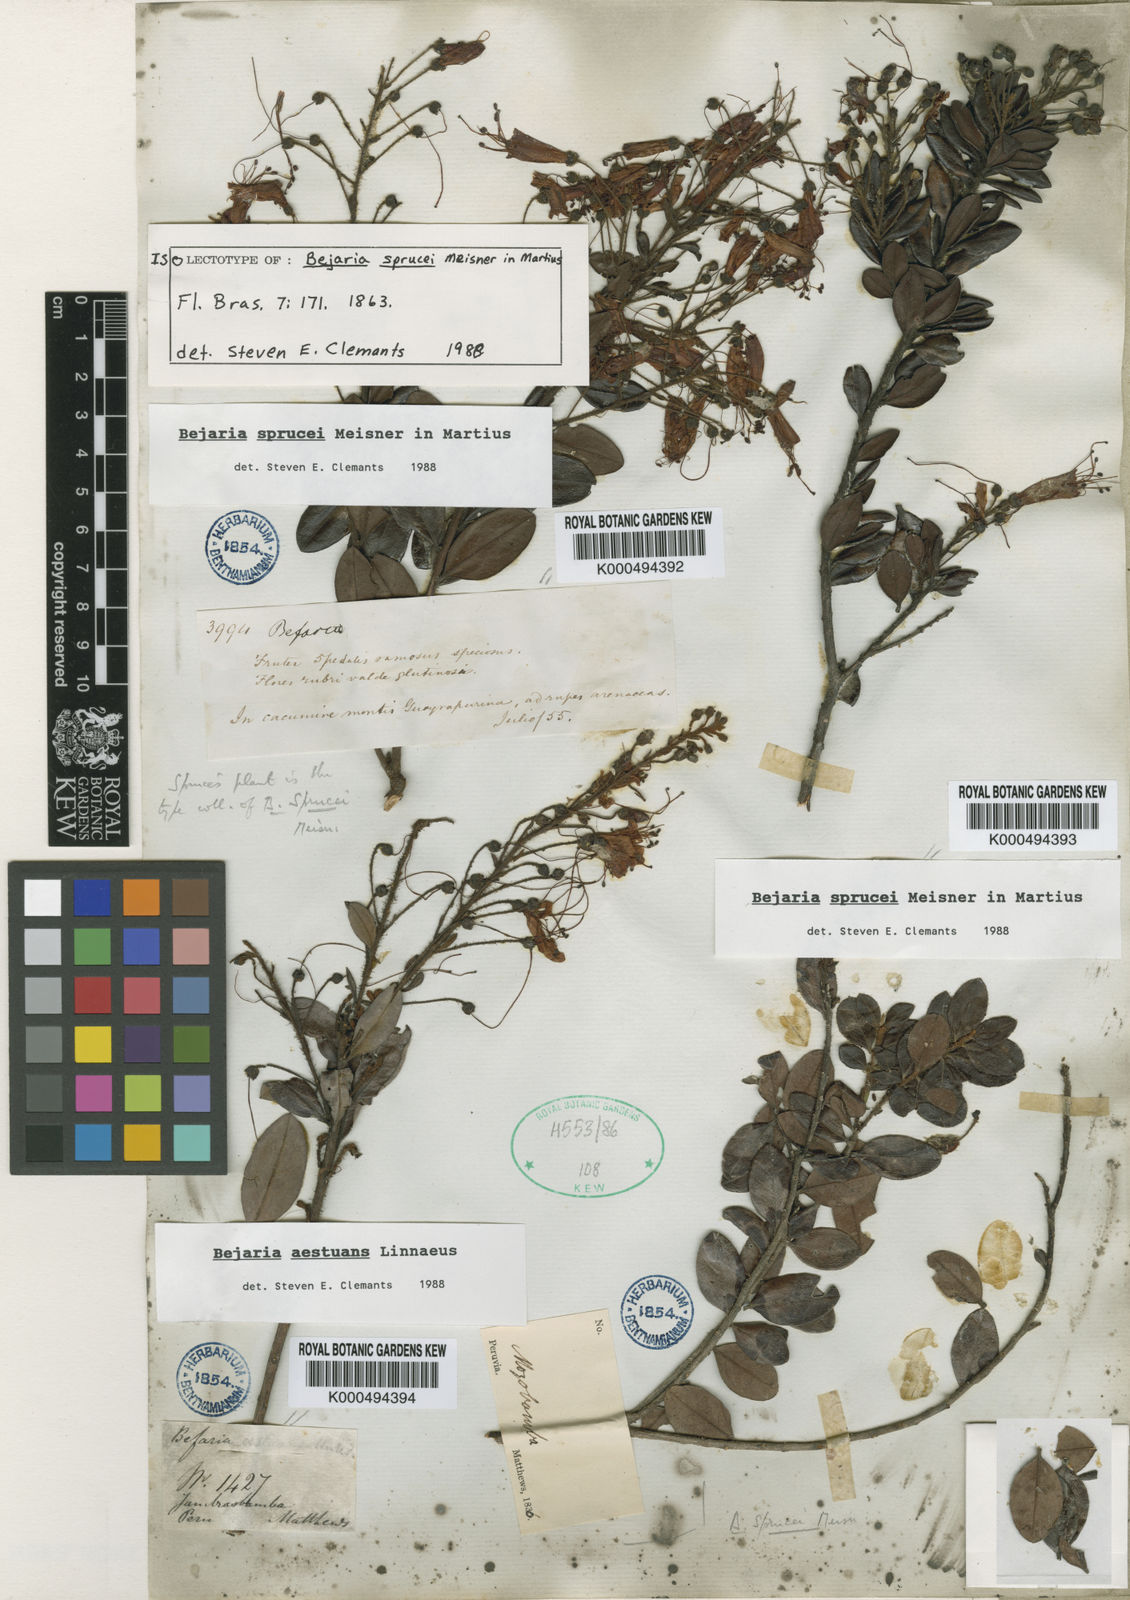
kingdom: Plantae
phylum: Tracheophyta
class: Magnoliopsida
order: Ericales
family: Ericaceae
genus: Bejaria
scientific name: Bejaria sprucei
